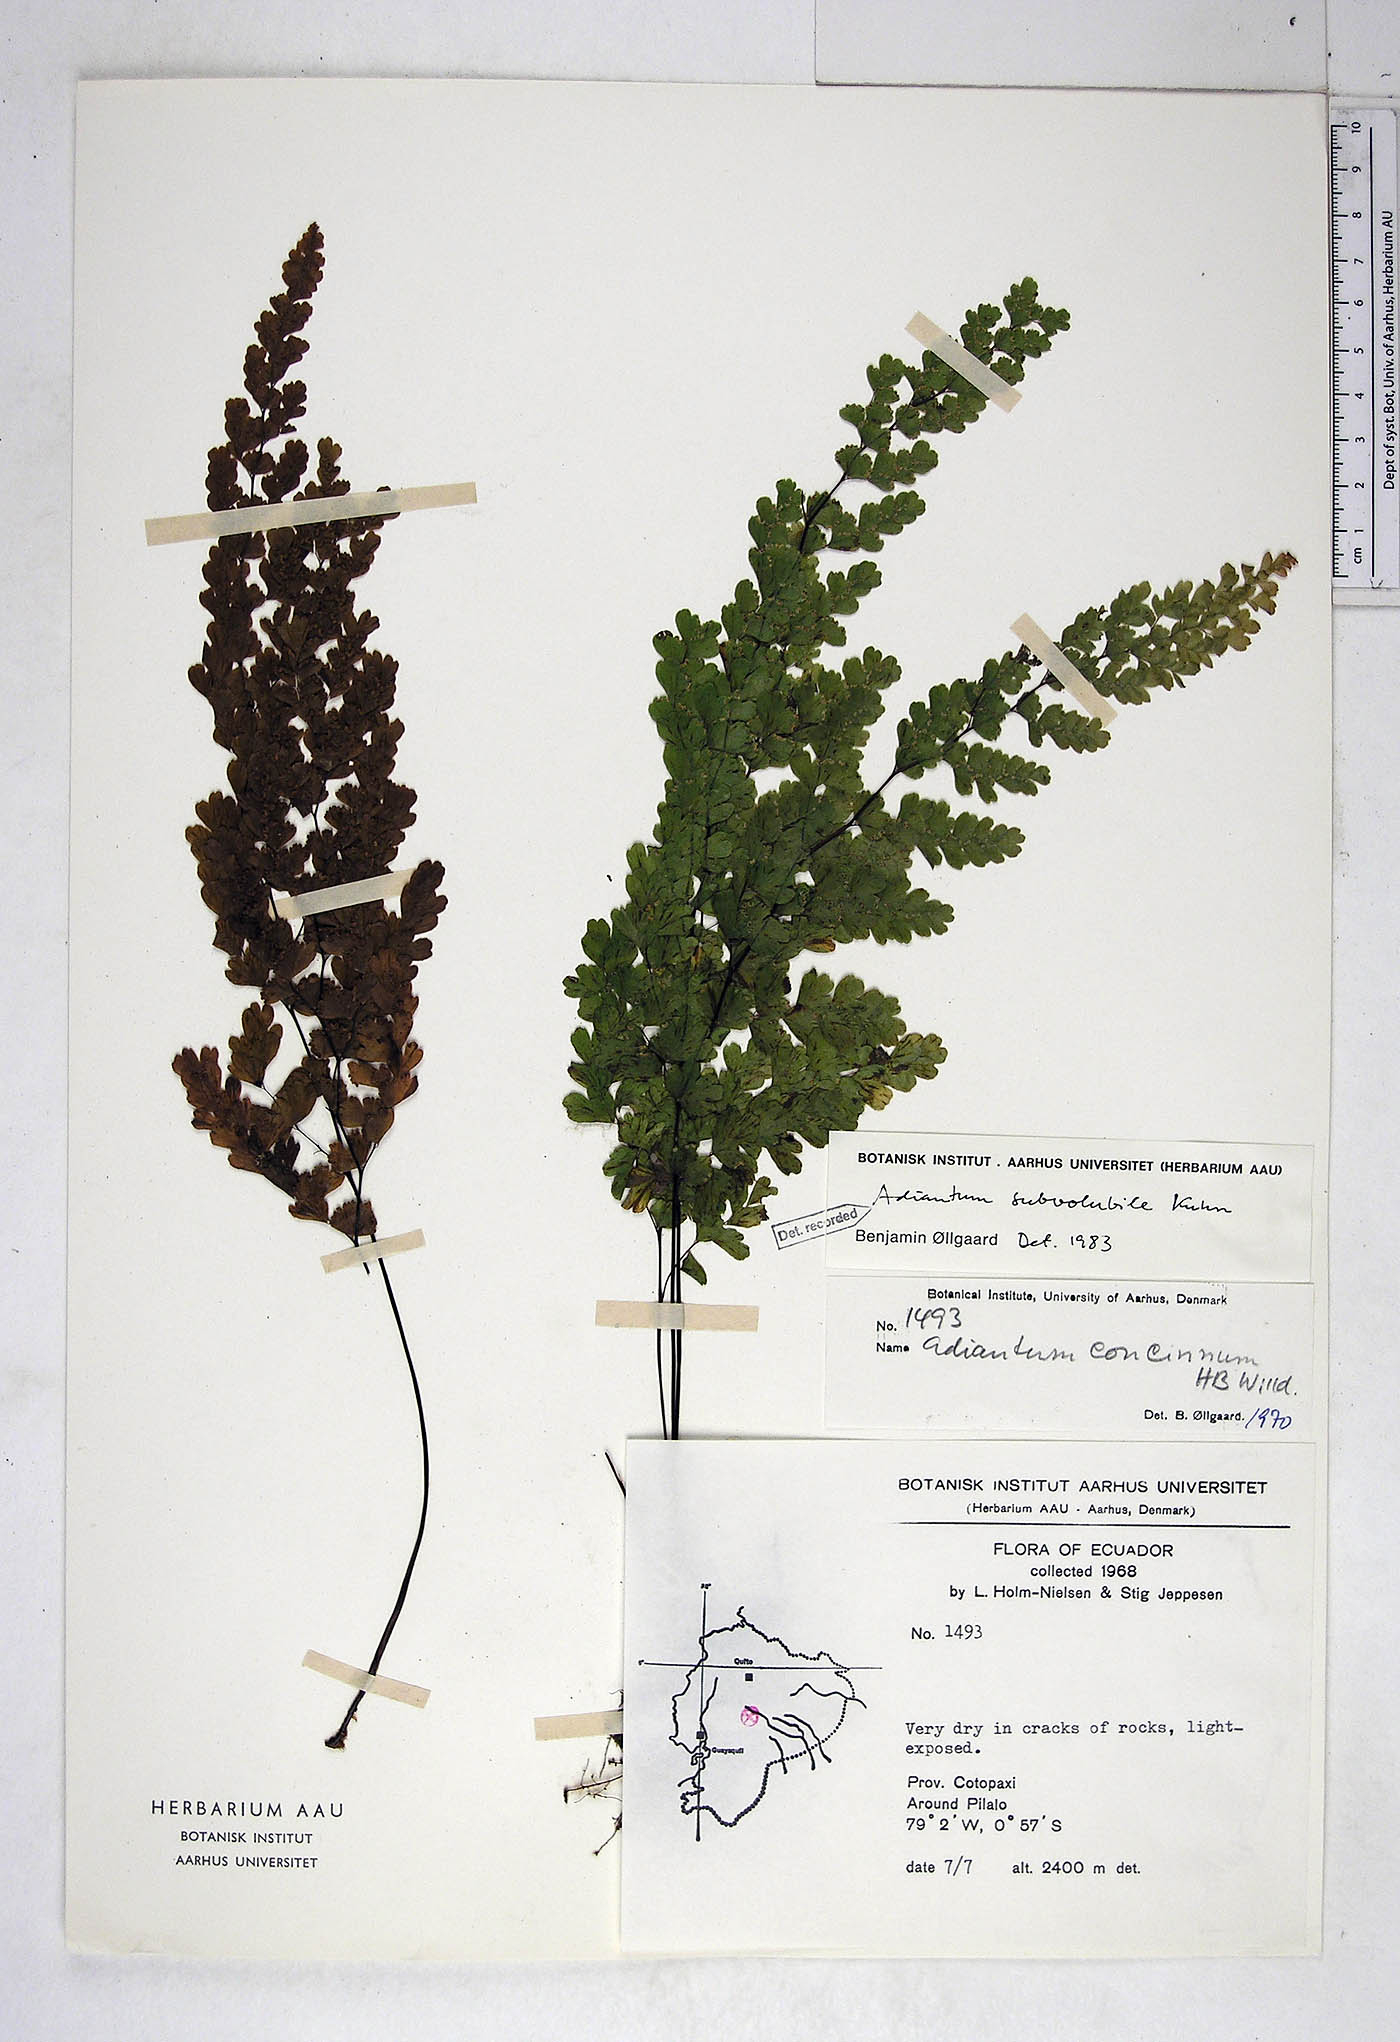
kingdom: Plantae
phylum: Tracheophyta
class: Polypodiopsida
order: Polypodiales
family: Pteridaceae
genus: Adiantum
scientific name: Adiantum subvolubile
